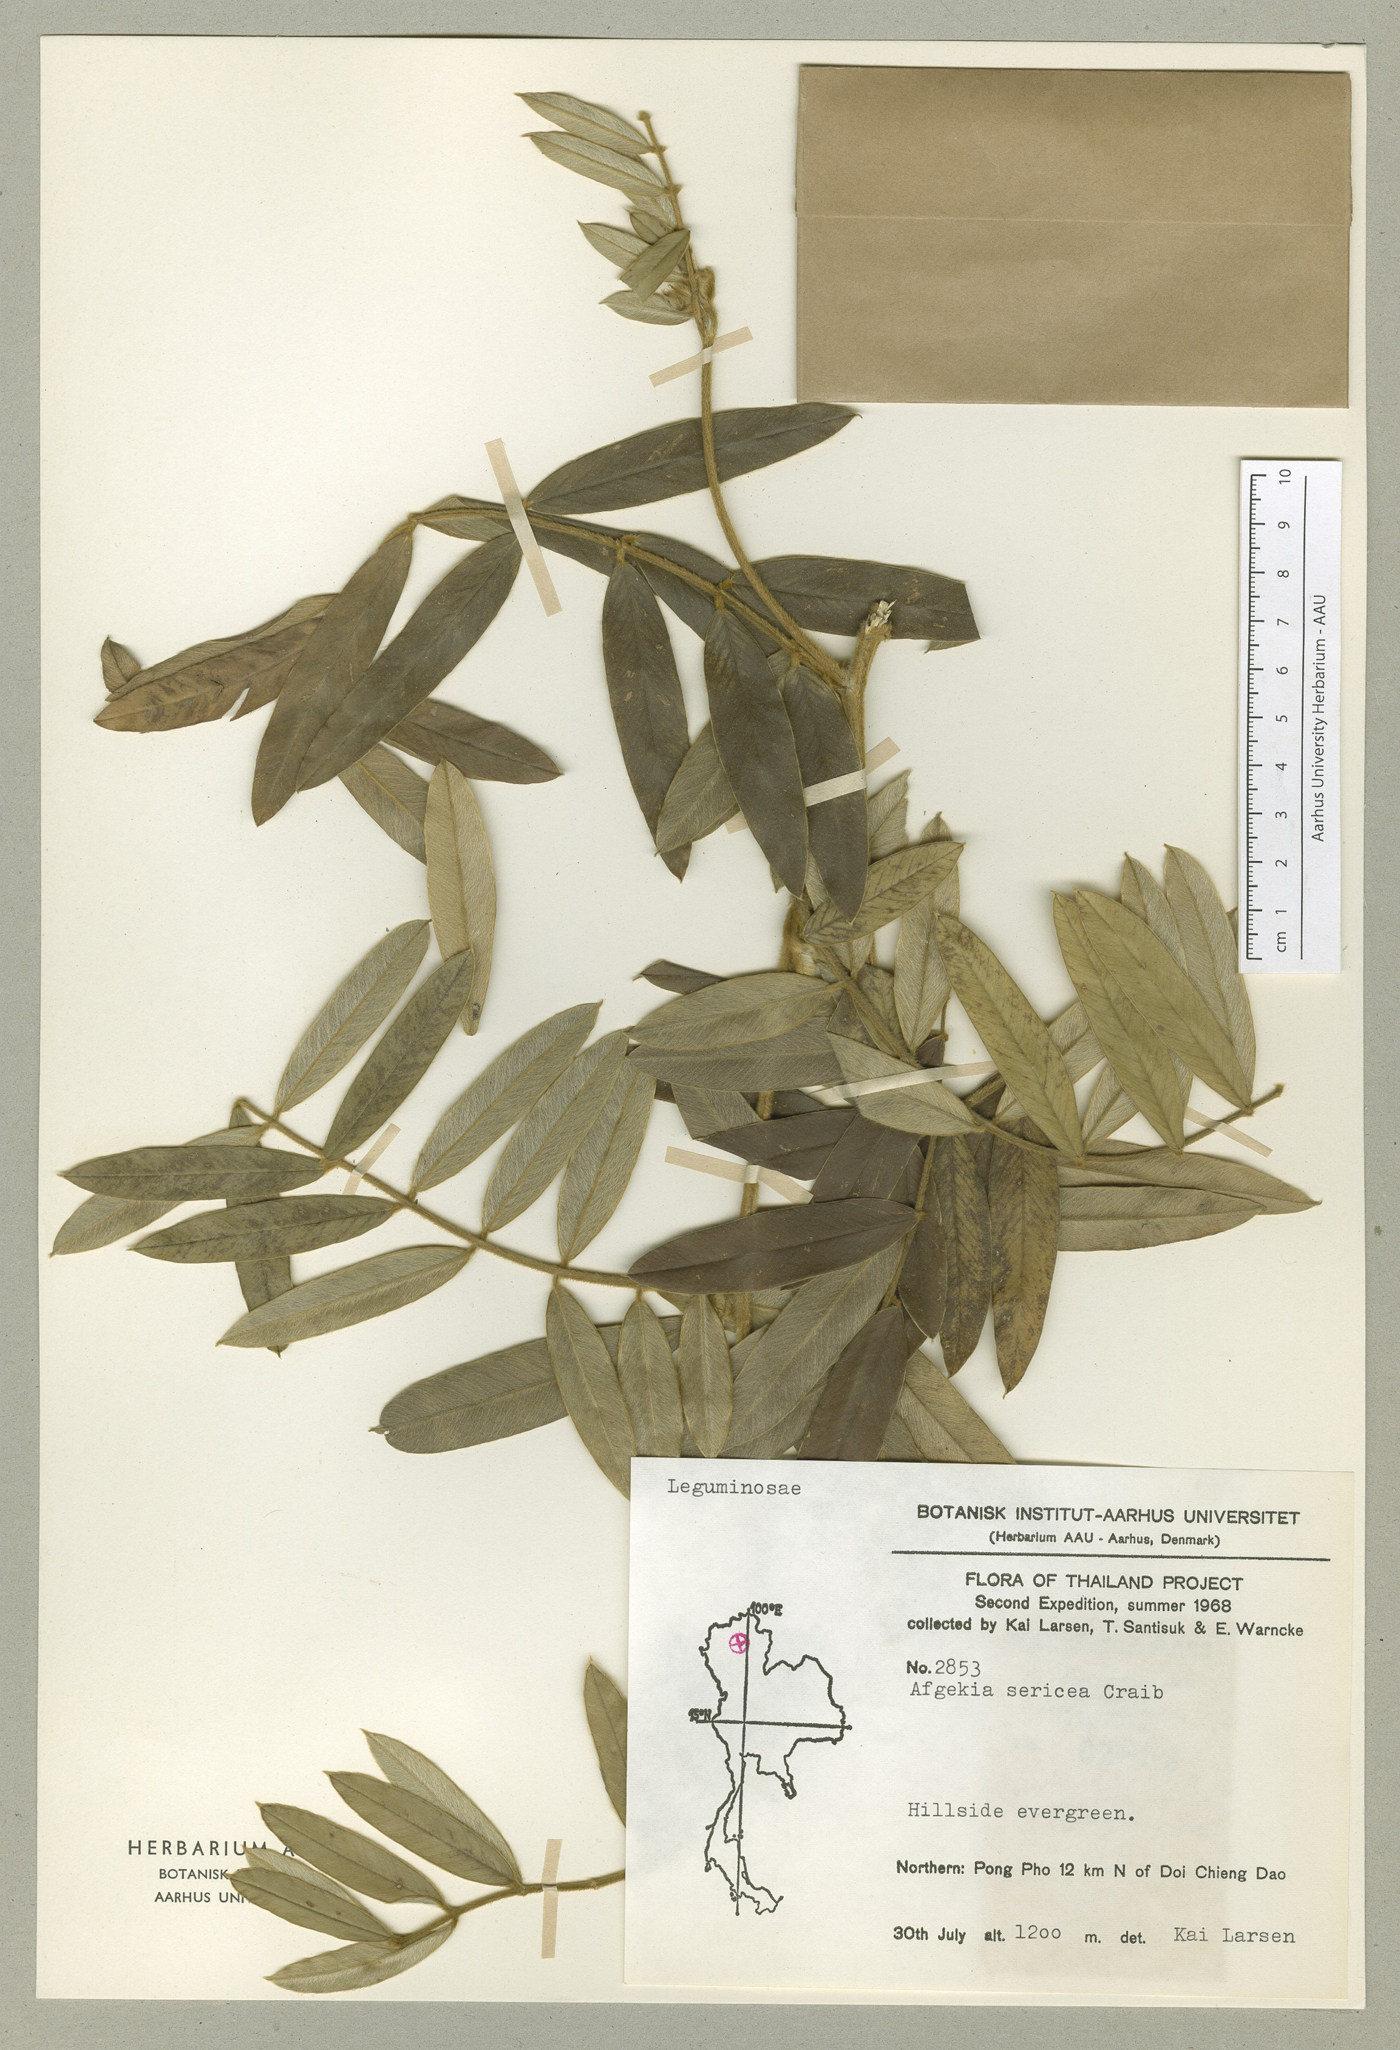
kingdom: Plantae
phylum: Tracheophyta
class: Magnoliopsida
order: Fabales
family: Fabaceae
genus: Afgekia
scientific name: Afgekia sericea
